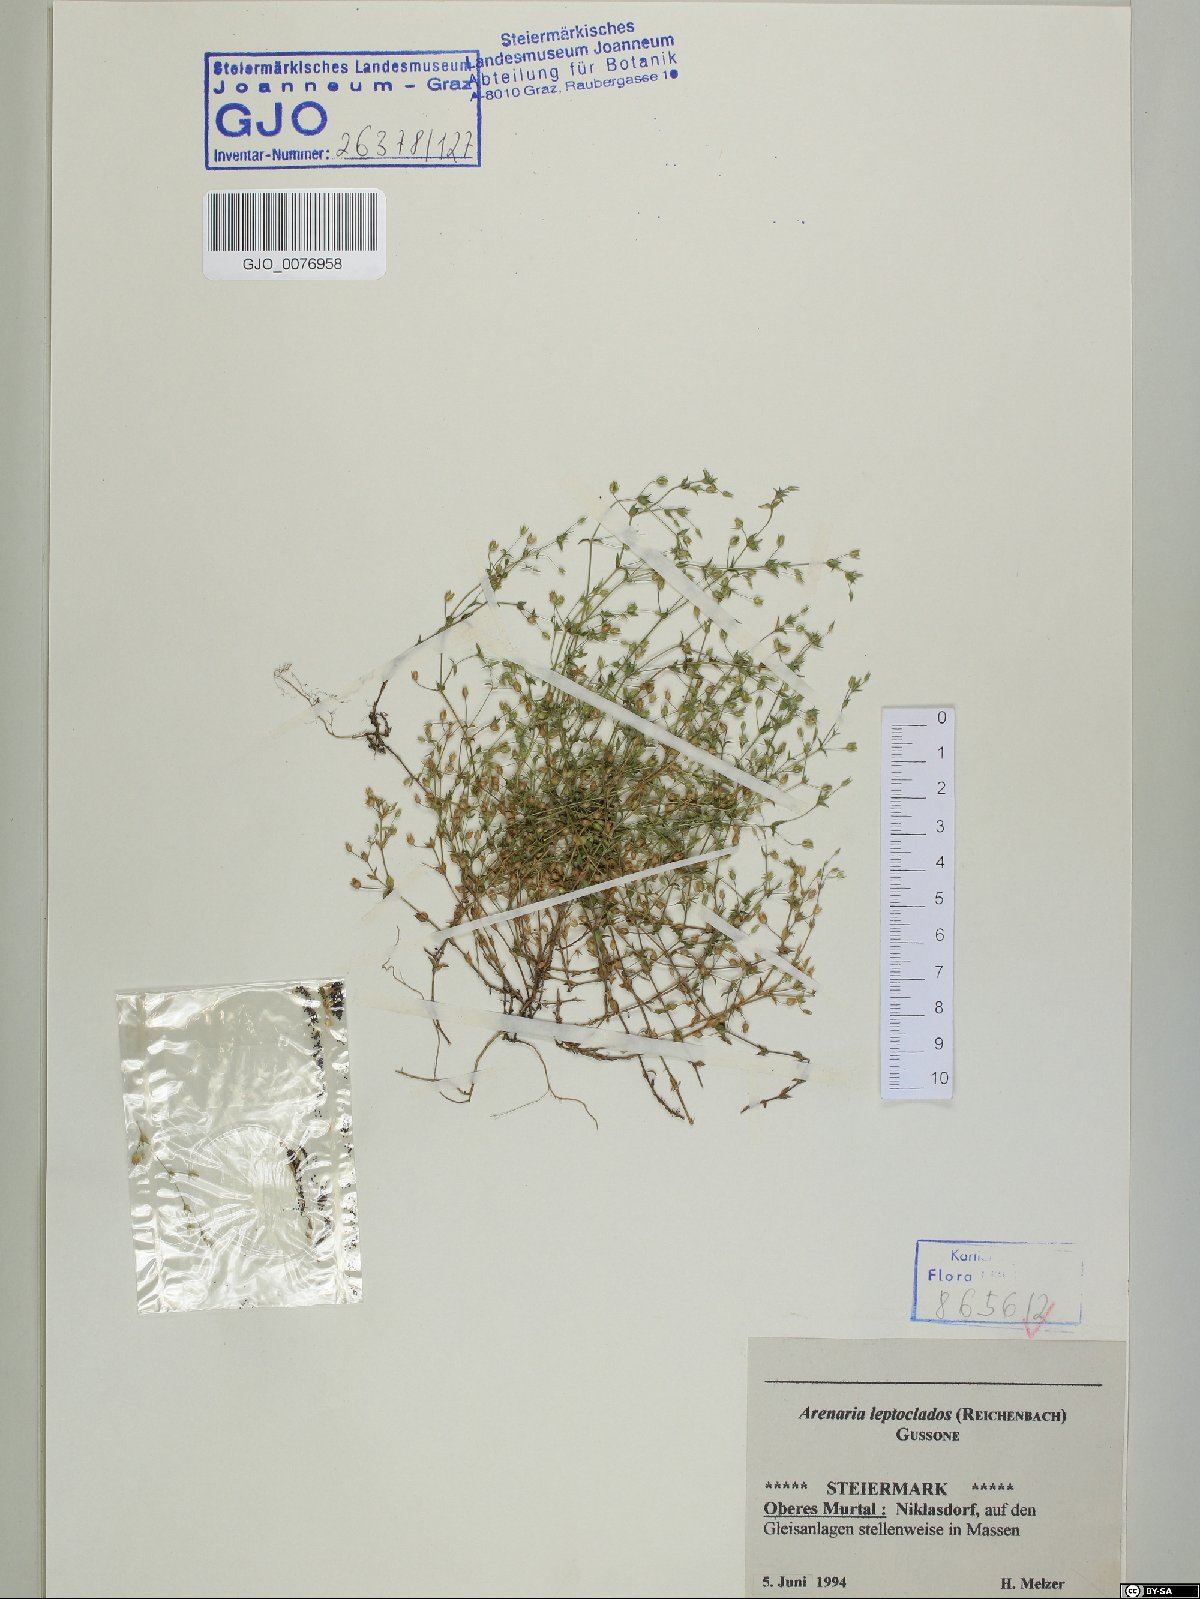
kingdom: Plantae
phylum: Tracheophyta
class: Magnoliopsida
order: Caryophyllales
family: Caryophyllaceae
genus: Arenaria
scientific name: Arenaria leptoclados
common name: Thyme-leaved sandwort
